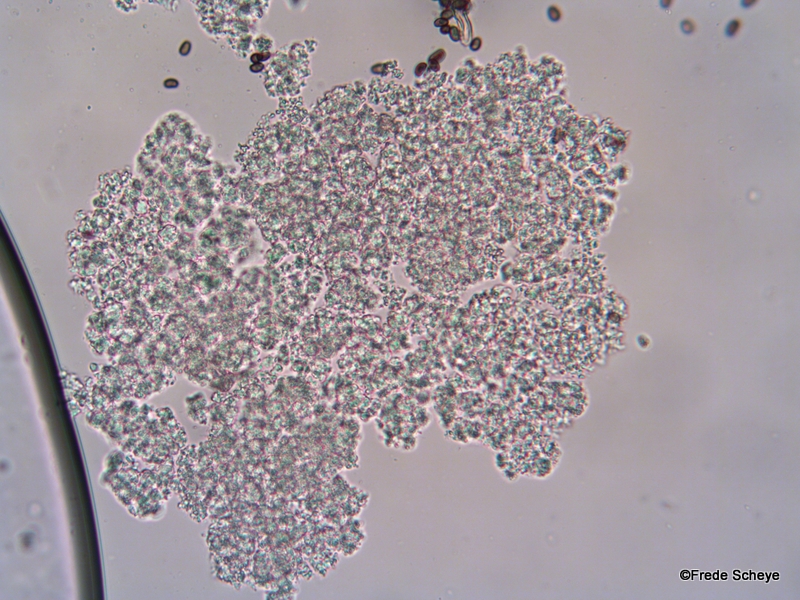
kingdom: Fungi
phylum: Basidiomycota
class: Agaricomycetes
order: Agaricales
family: Psathyrellaceae
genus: Coprinellus
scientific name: Coprinellus domesticus
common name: hus-blækhat
